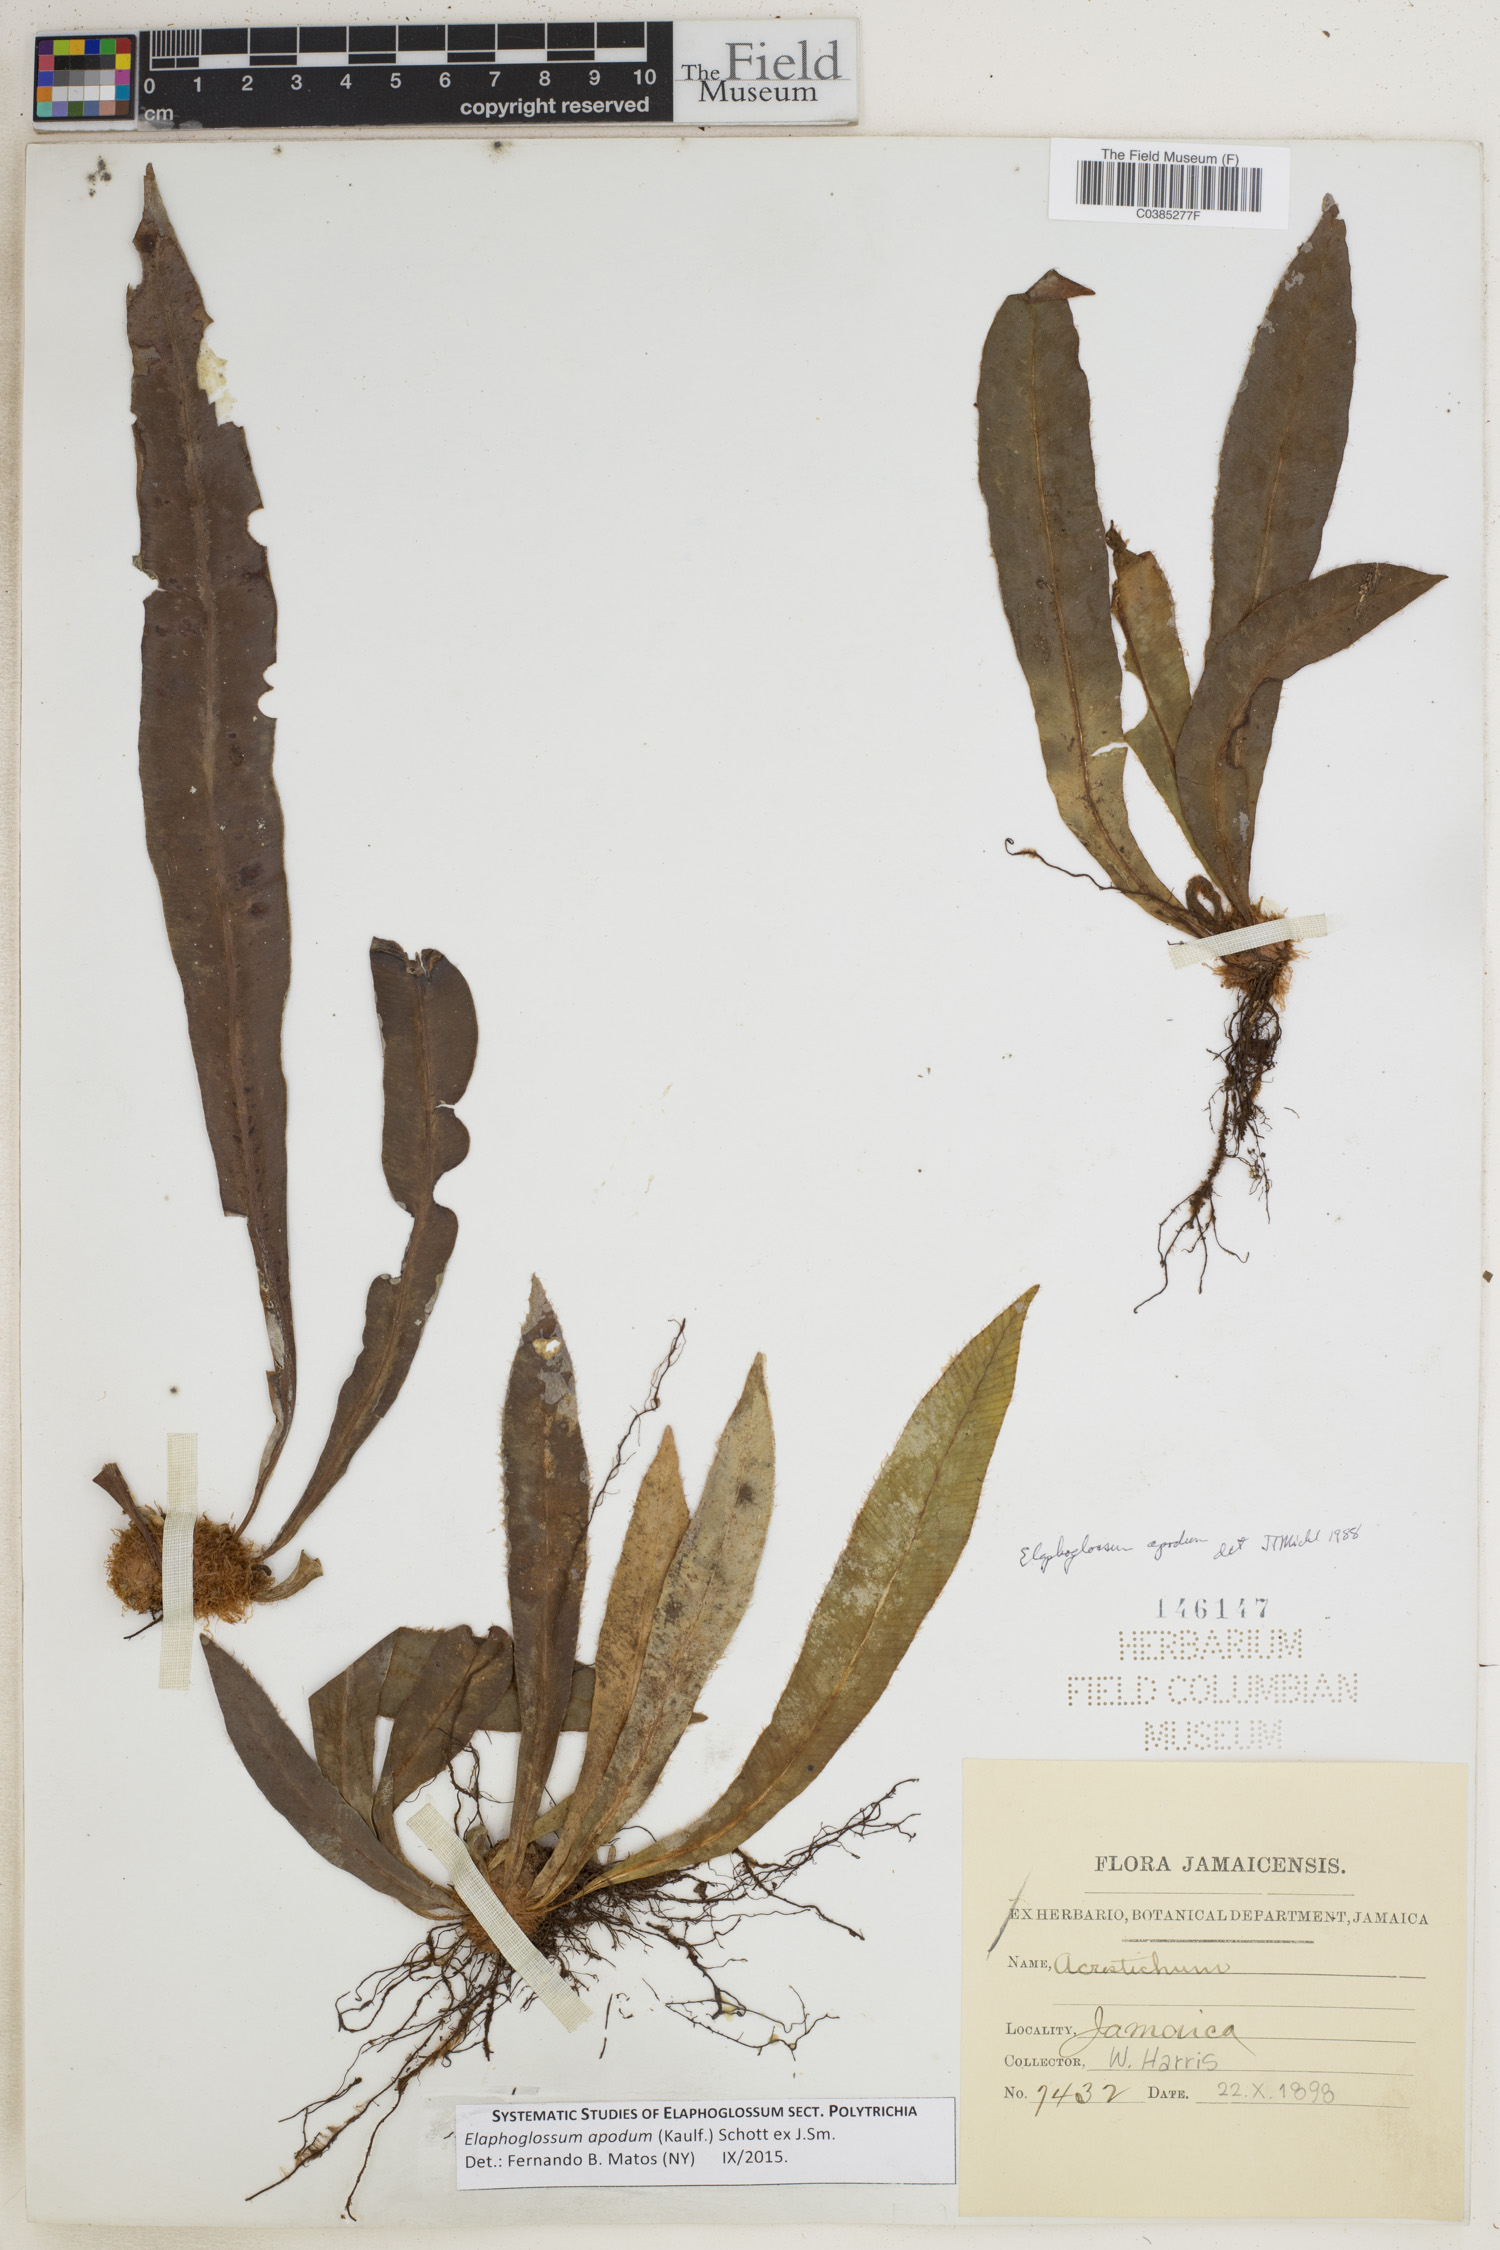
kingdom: Plantae
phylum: Tracheophyta
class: Polypodiopsida
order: Polypodiales
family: Dryopteridaceae
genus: Elaphoglossum
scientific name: Elaphoglossum apodum
